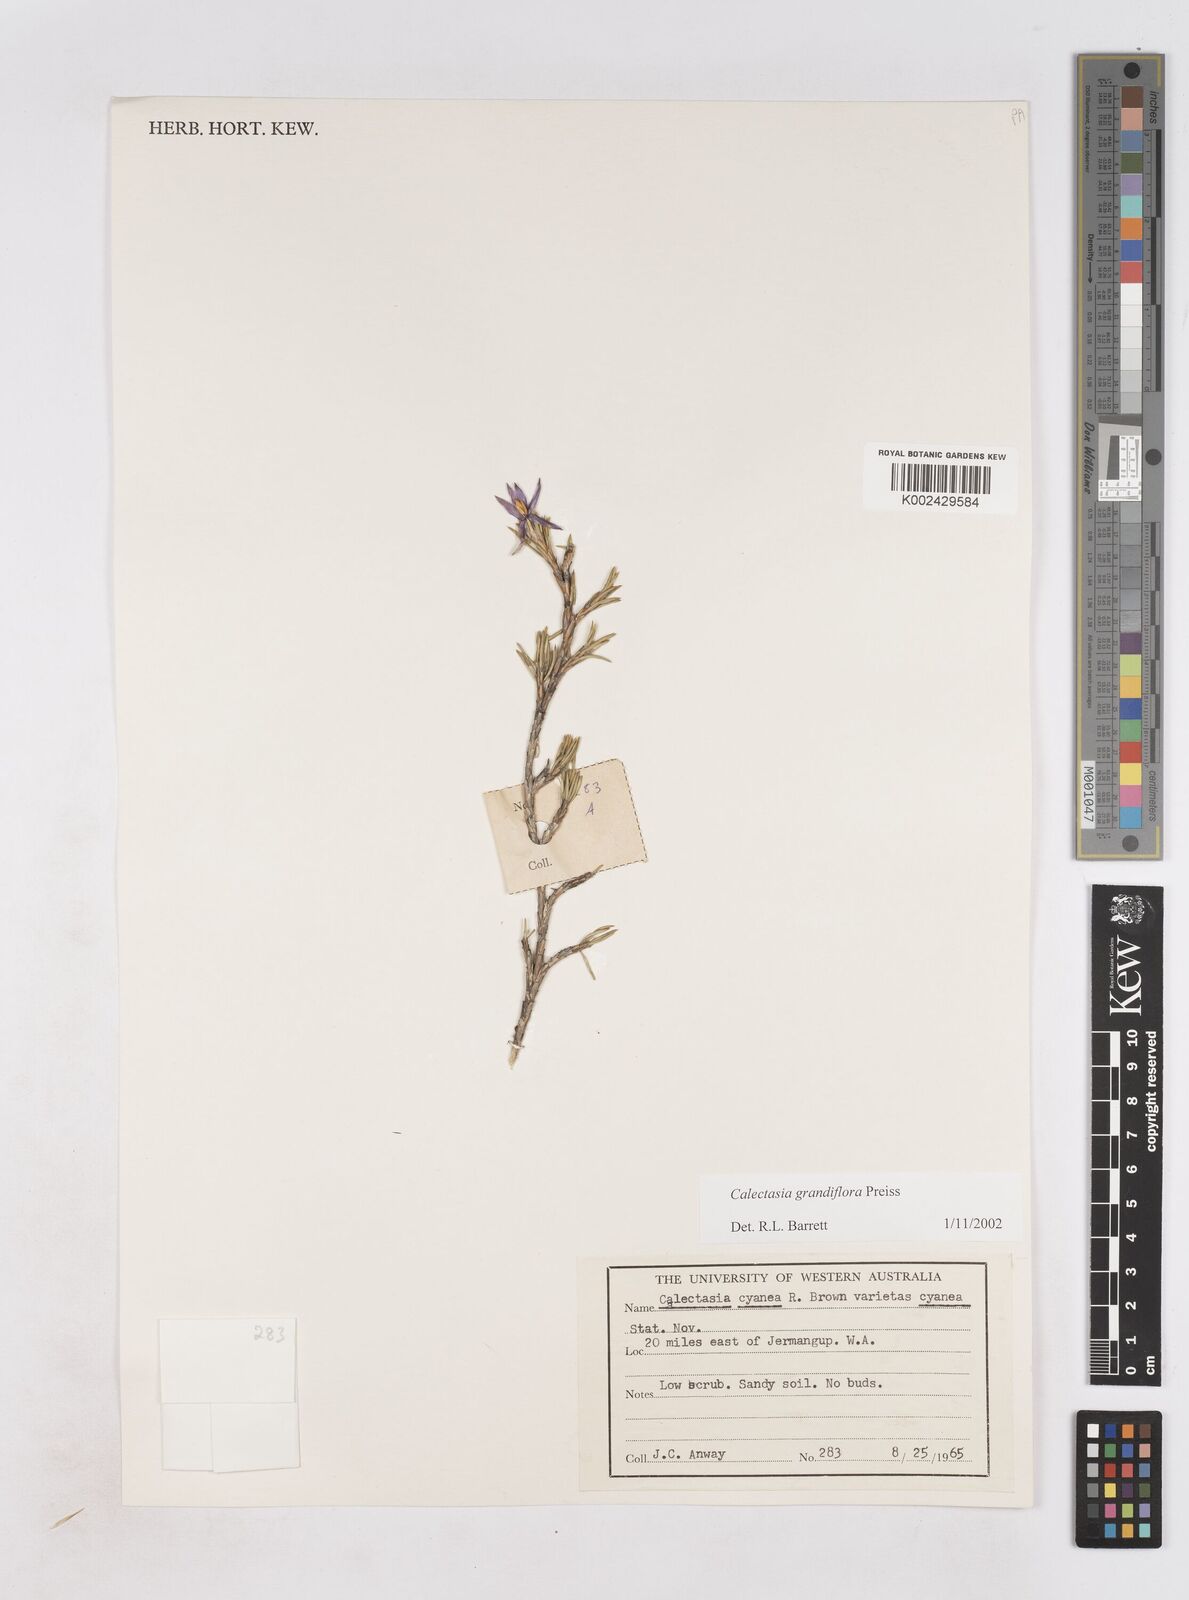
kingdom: Plantae
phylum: Tracheophyta
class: Liliopsida
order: Arecales
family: Dasypogonaceae
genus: Calectasia
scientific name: Calectasia grandiflora
